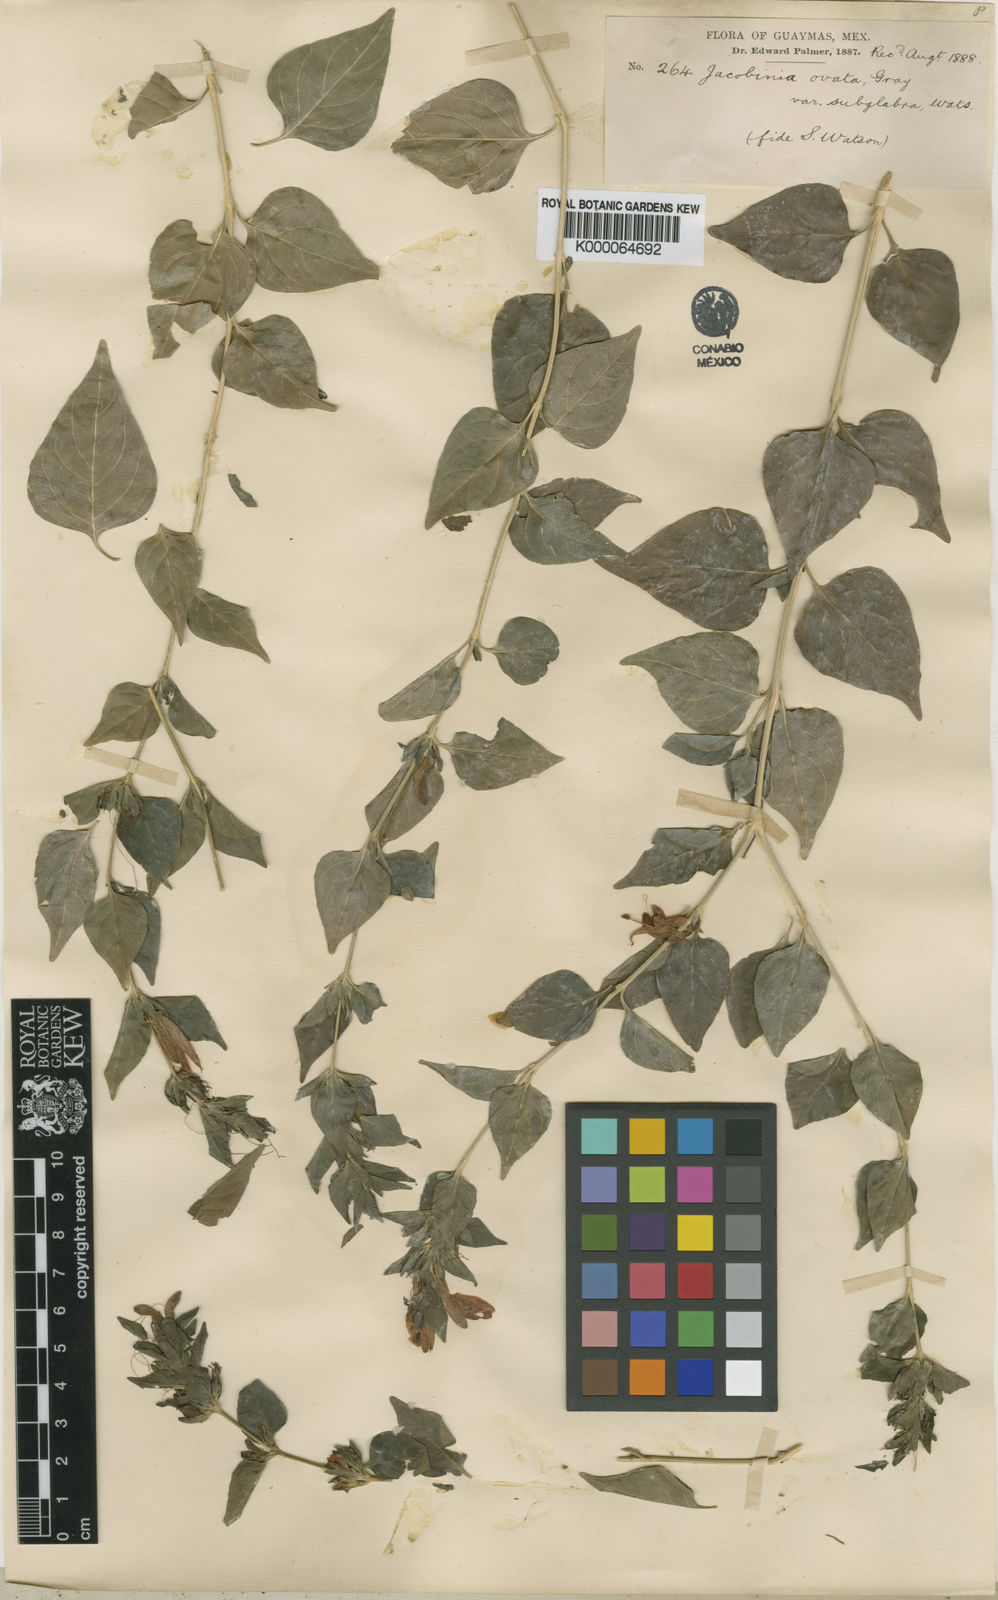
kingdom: Plantae
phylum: Tracheophyta
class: Magnoliopsida
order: Lamiales
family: Acanthaceae
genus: Dianthera
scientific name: Dianthera candicans
